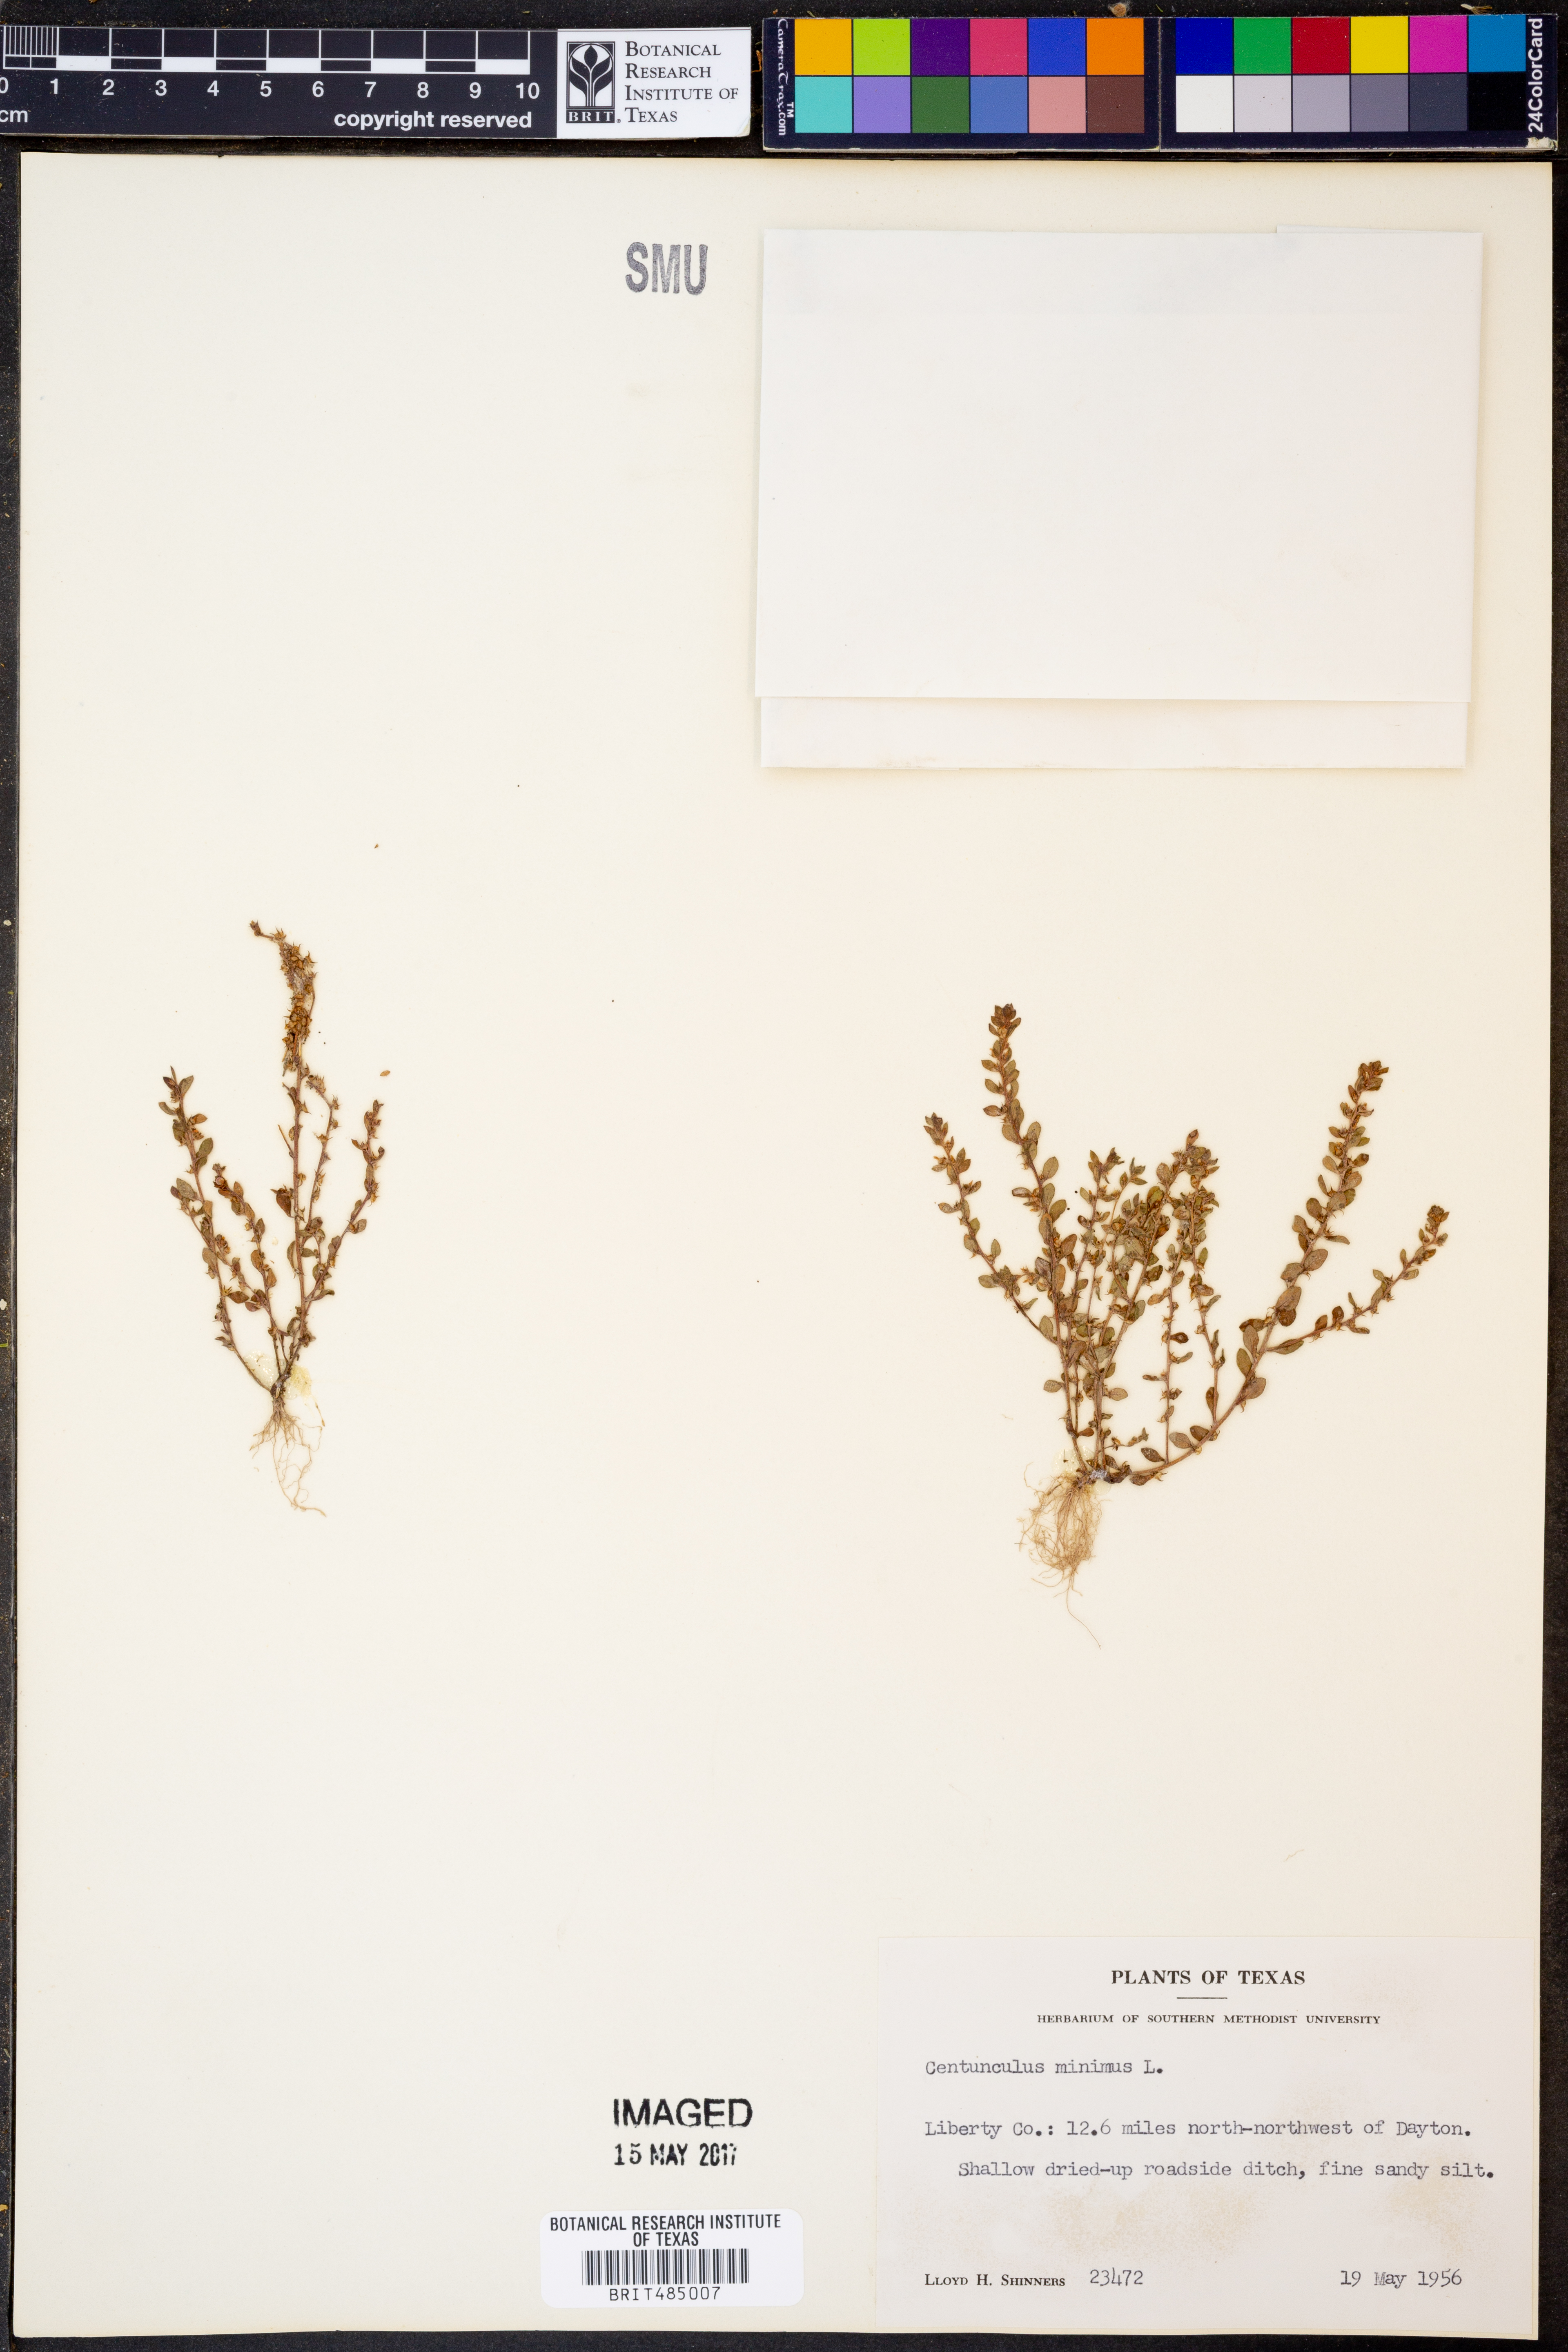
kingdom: Plantae
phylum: Tracheophyta
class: Magnoliopsida
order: Ericales
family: Primulaceae
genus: Lysimachia
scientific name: Lysimachia minima
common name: Chaffweed
